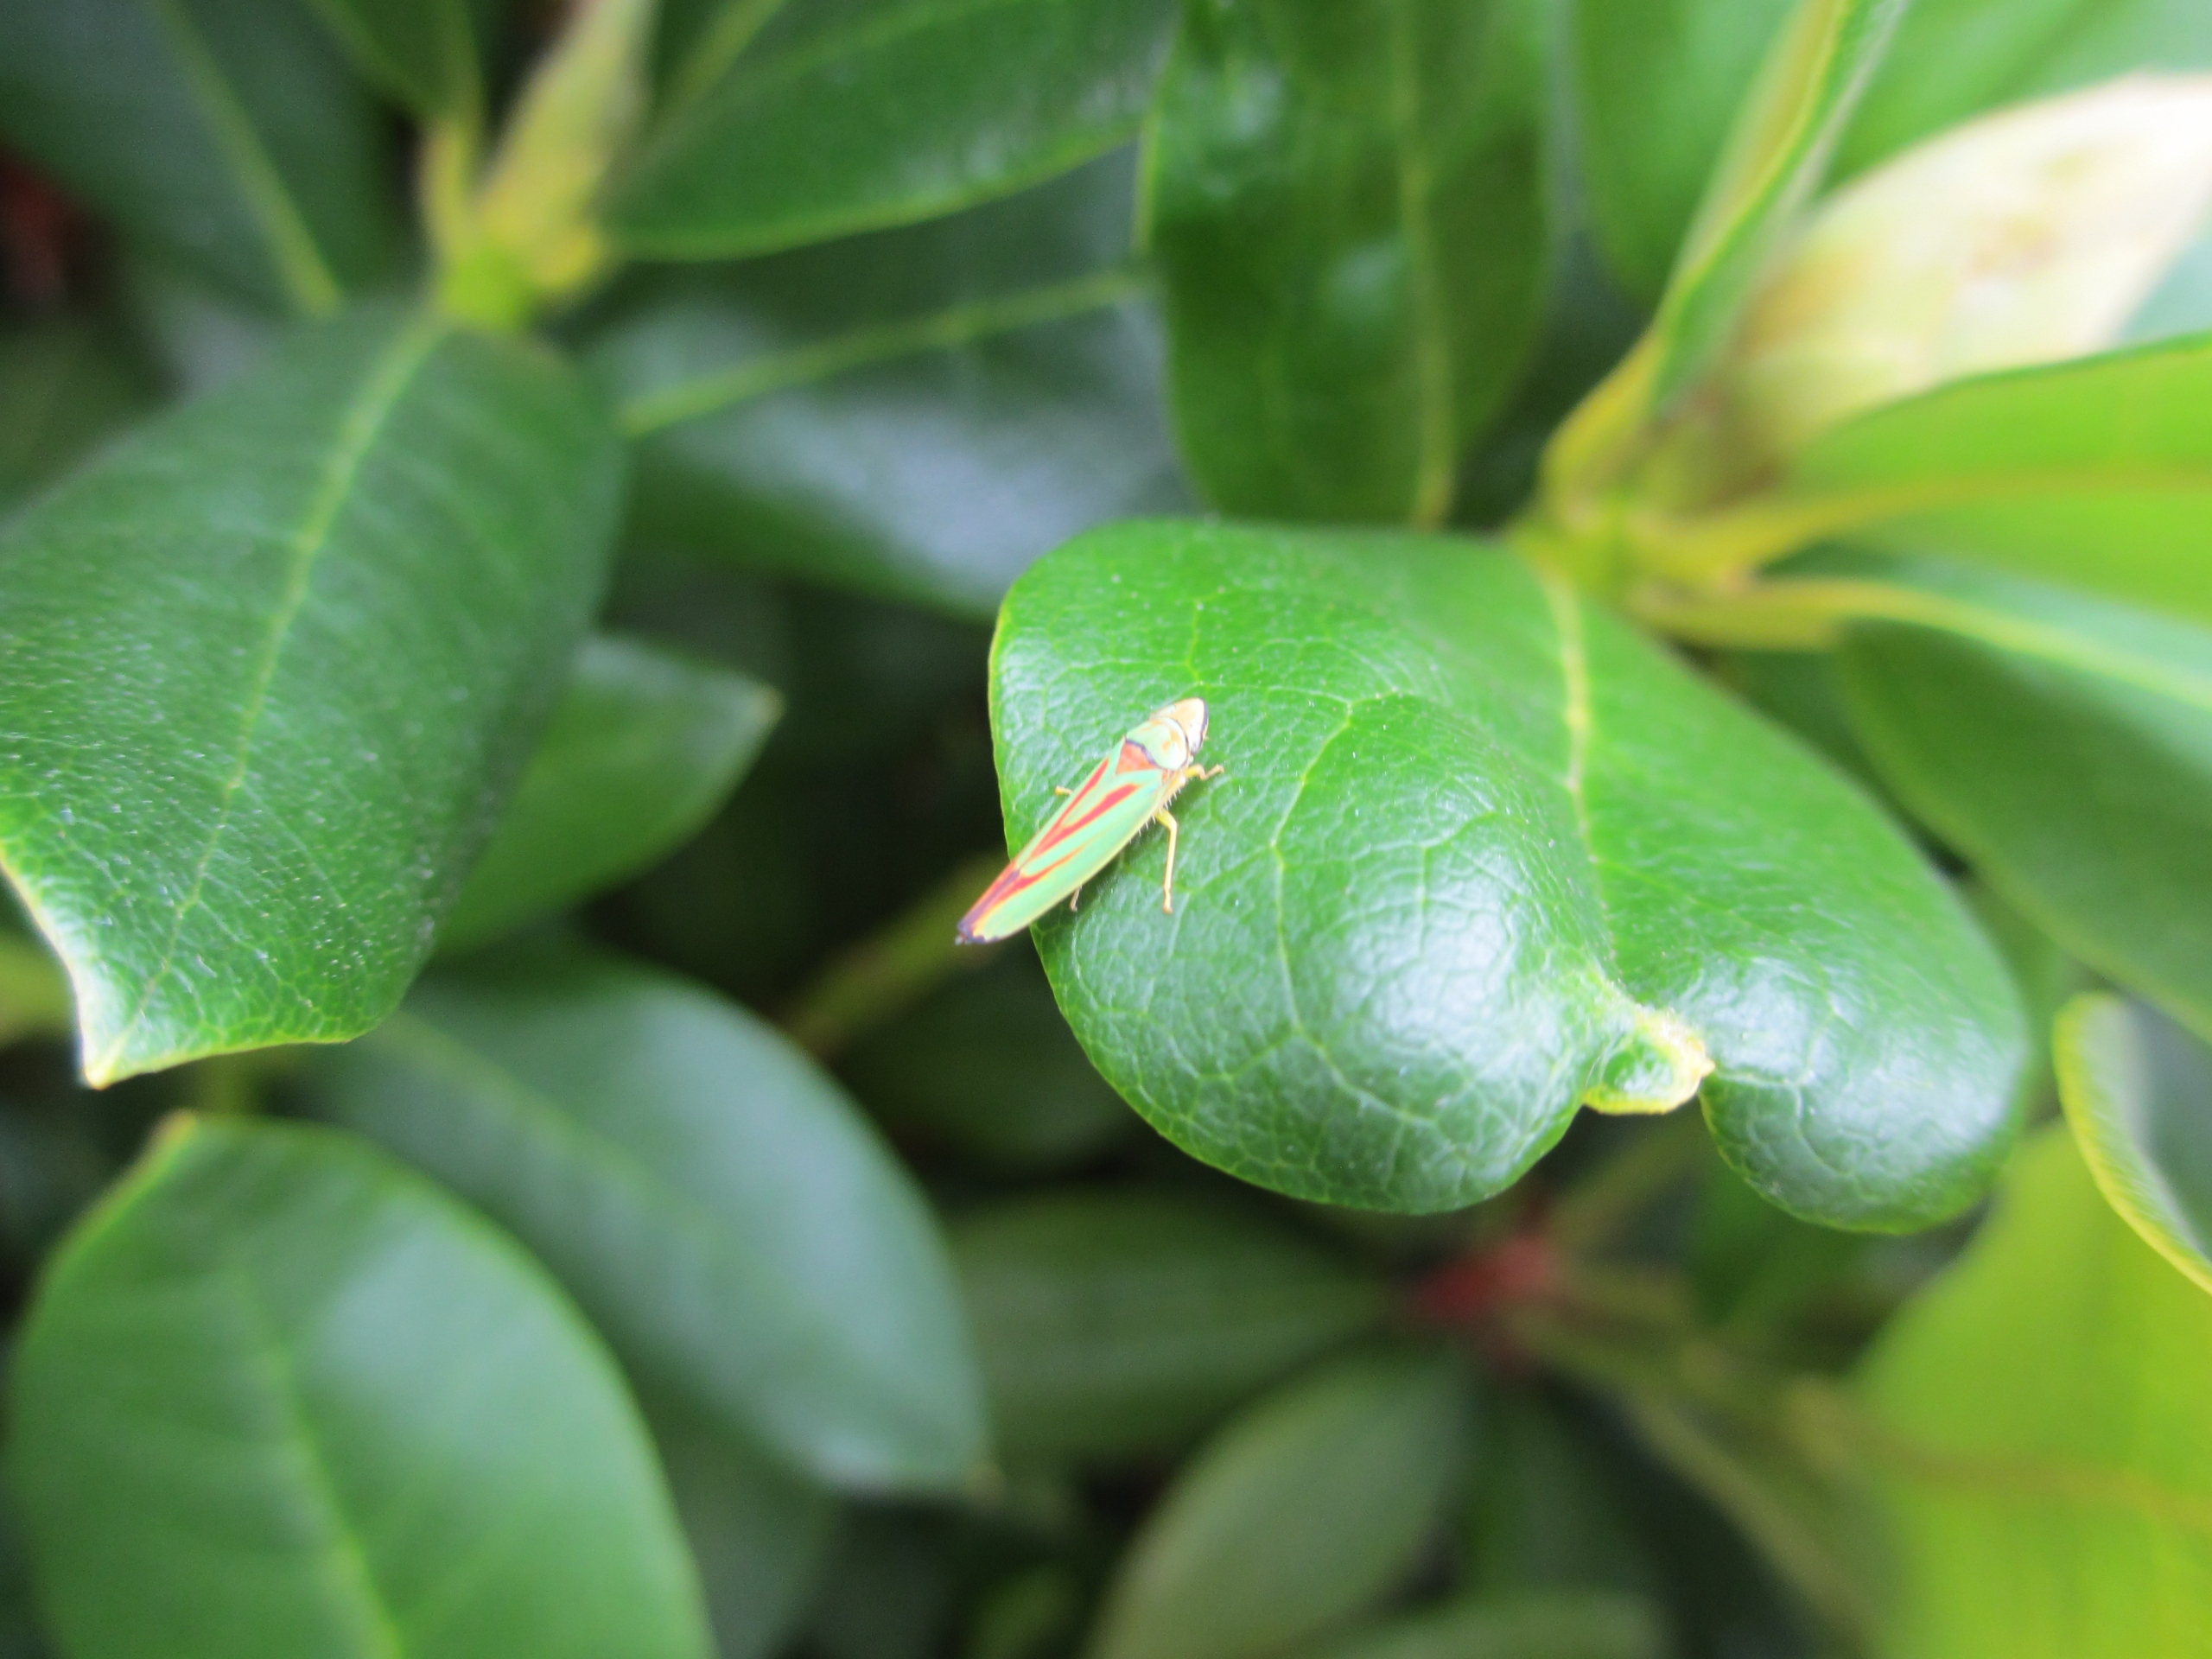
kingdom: Animalia
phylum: Arthropoda
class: Insecta
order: Hemiptera
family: Cicadellidae
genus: Graphocephala
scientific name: Graphocephala fennahi
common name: Rododendroncikade
